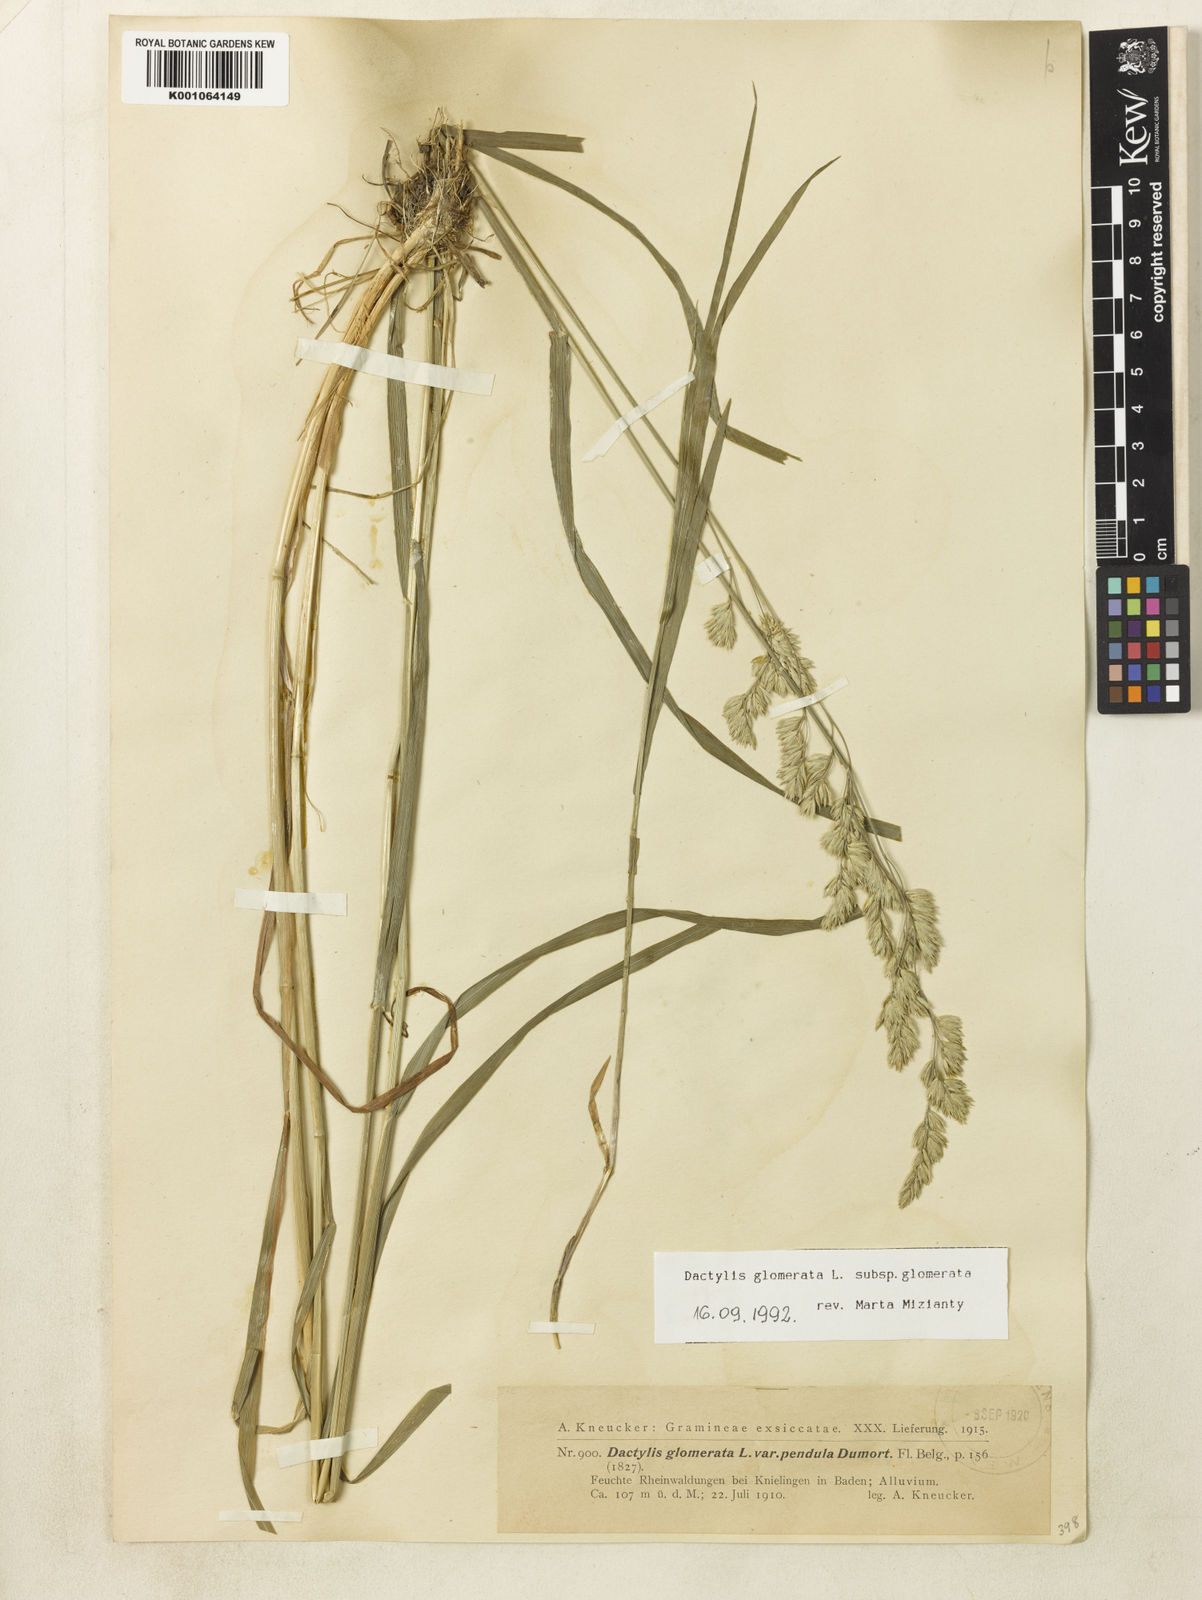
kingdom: Plantae
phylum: Tracheophyta
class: Liliopsida
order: Poales
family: Poaceae
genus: Dactylis
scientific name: Dactylis glomerata
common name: Orchardgrass
